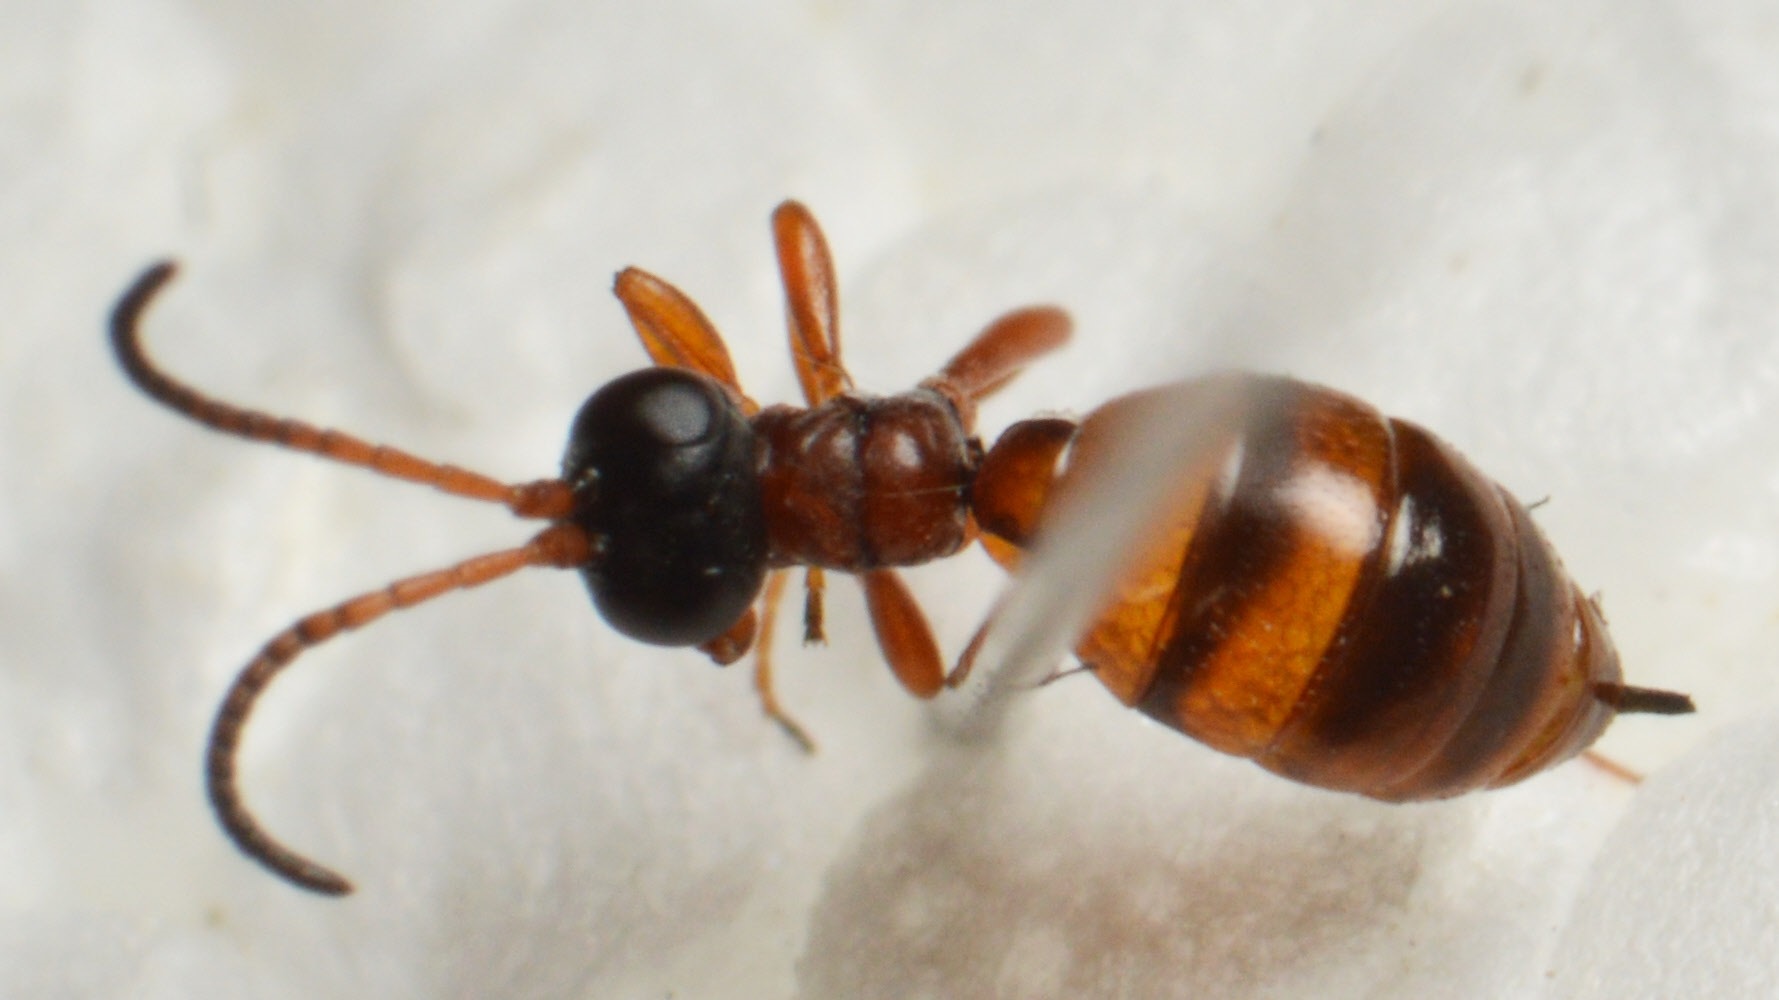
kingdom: Animalia
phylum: Arthropoda
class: Insecta
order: Hymenoptera
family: Ichneumonidae
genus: Gelis
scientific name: Gelis proximus
